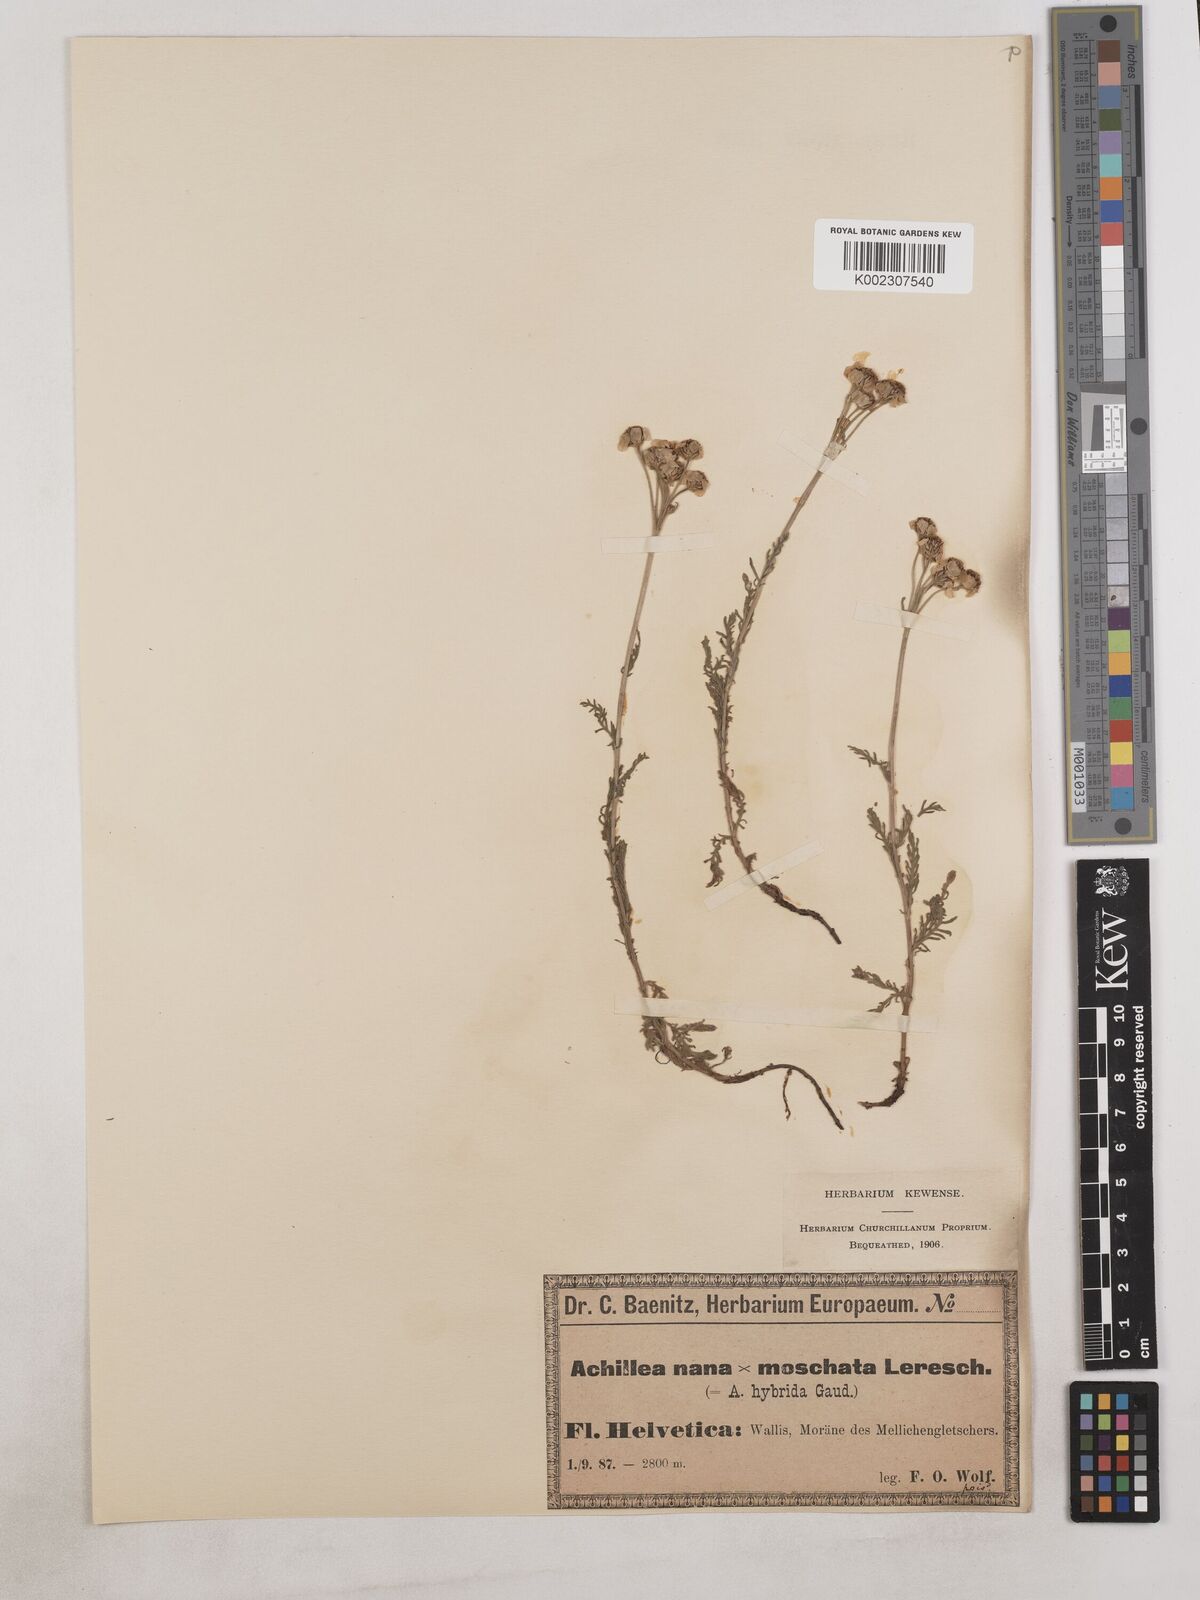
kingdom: Plantae
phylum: Tracheophyta
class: Magnoliopsida
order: Asterales
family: Asteraceae
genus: Achillea
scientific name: Achillea erba-rotta
